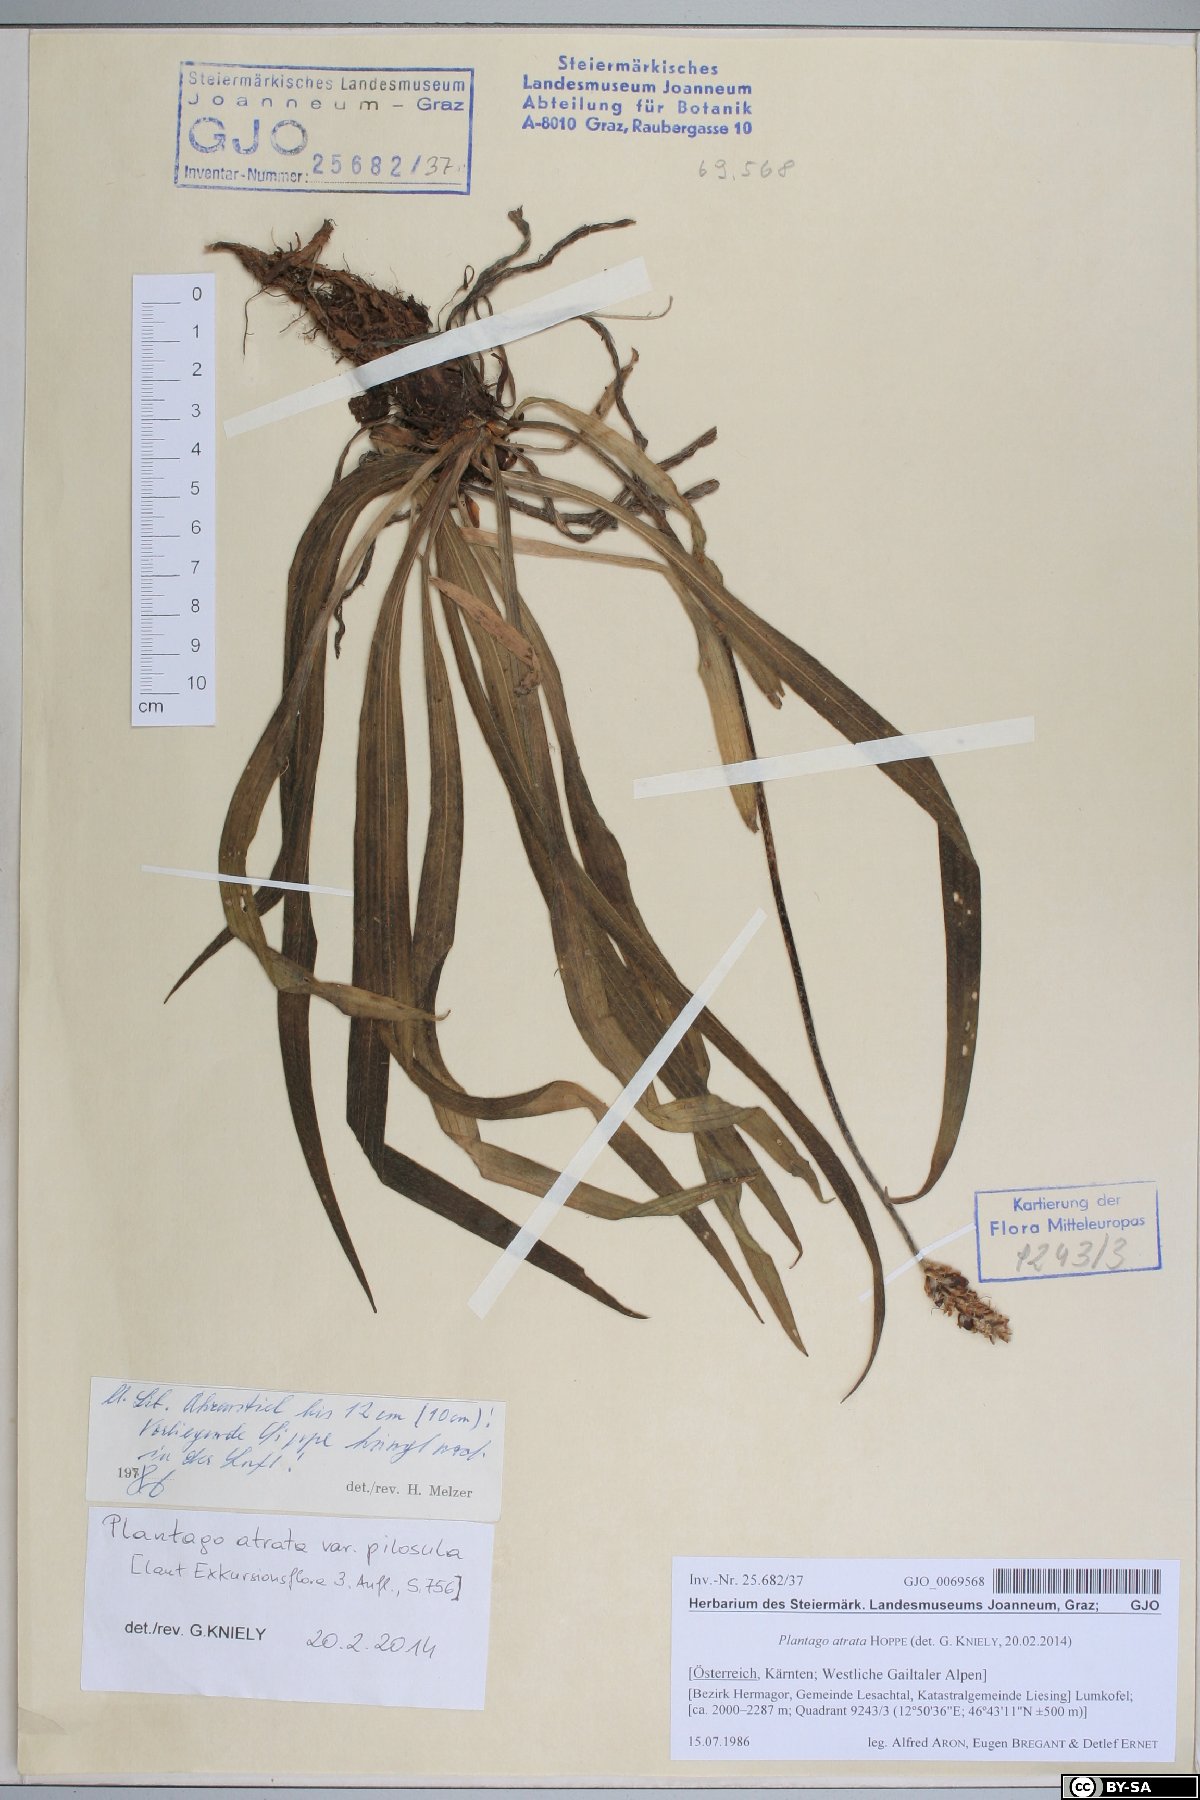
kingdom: Plantae
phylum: Tracheophyta
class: Magnoliopsida
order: Lamiales
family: Plantaginaceae
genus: Plantago
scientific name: Plantago atrata
